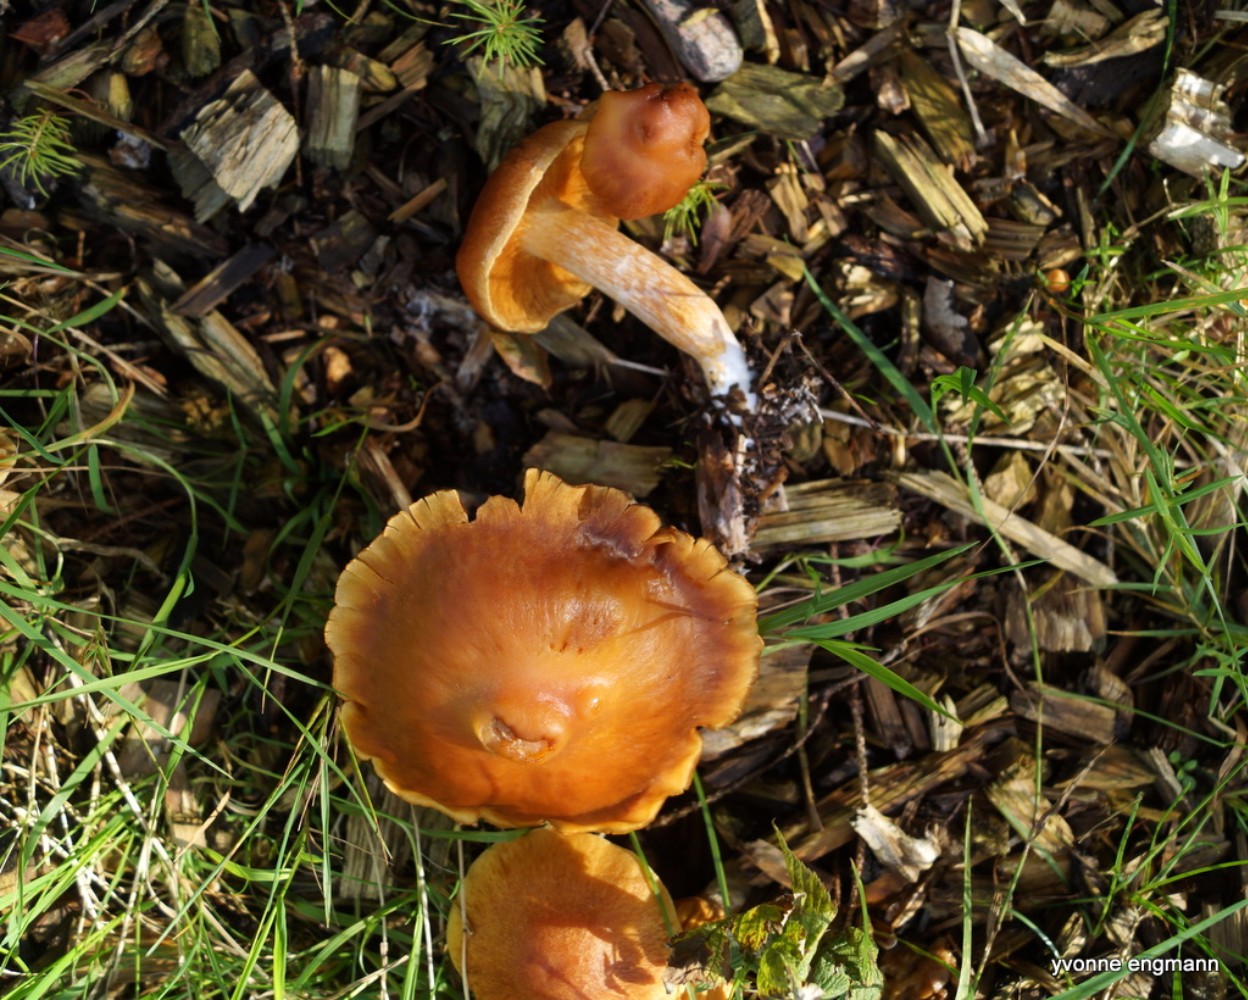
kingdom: Fungi
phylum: Basidiomycota
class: Agaricomycetes
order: Agaricales
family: Hymenogastraceae
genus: Gymnopilus
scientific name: Gymnopilus penetrans
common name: plettet flammehat
